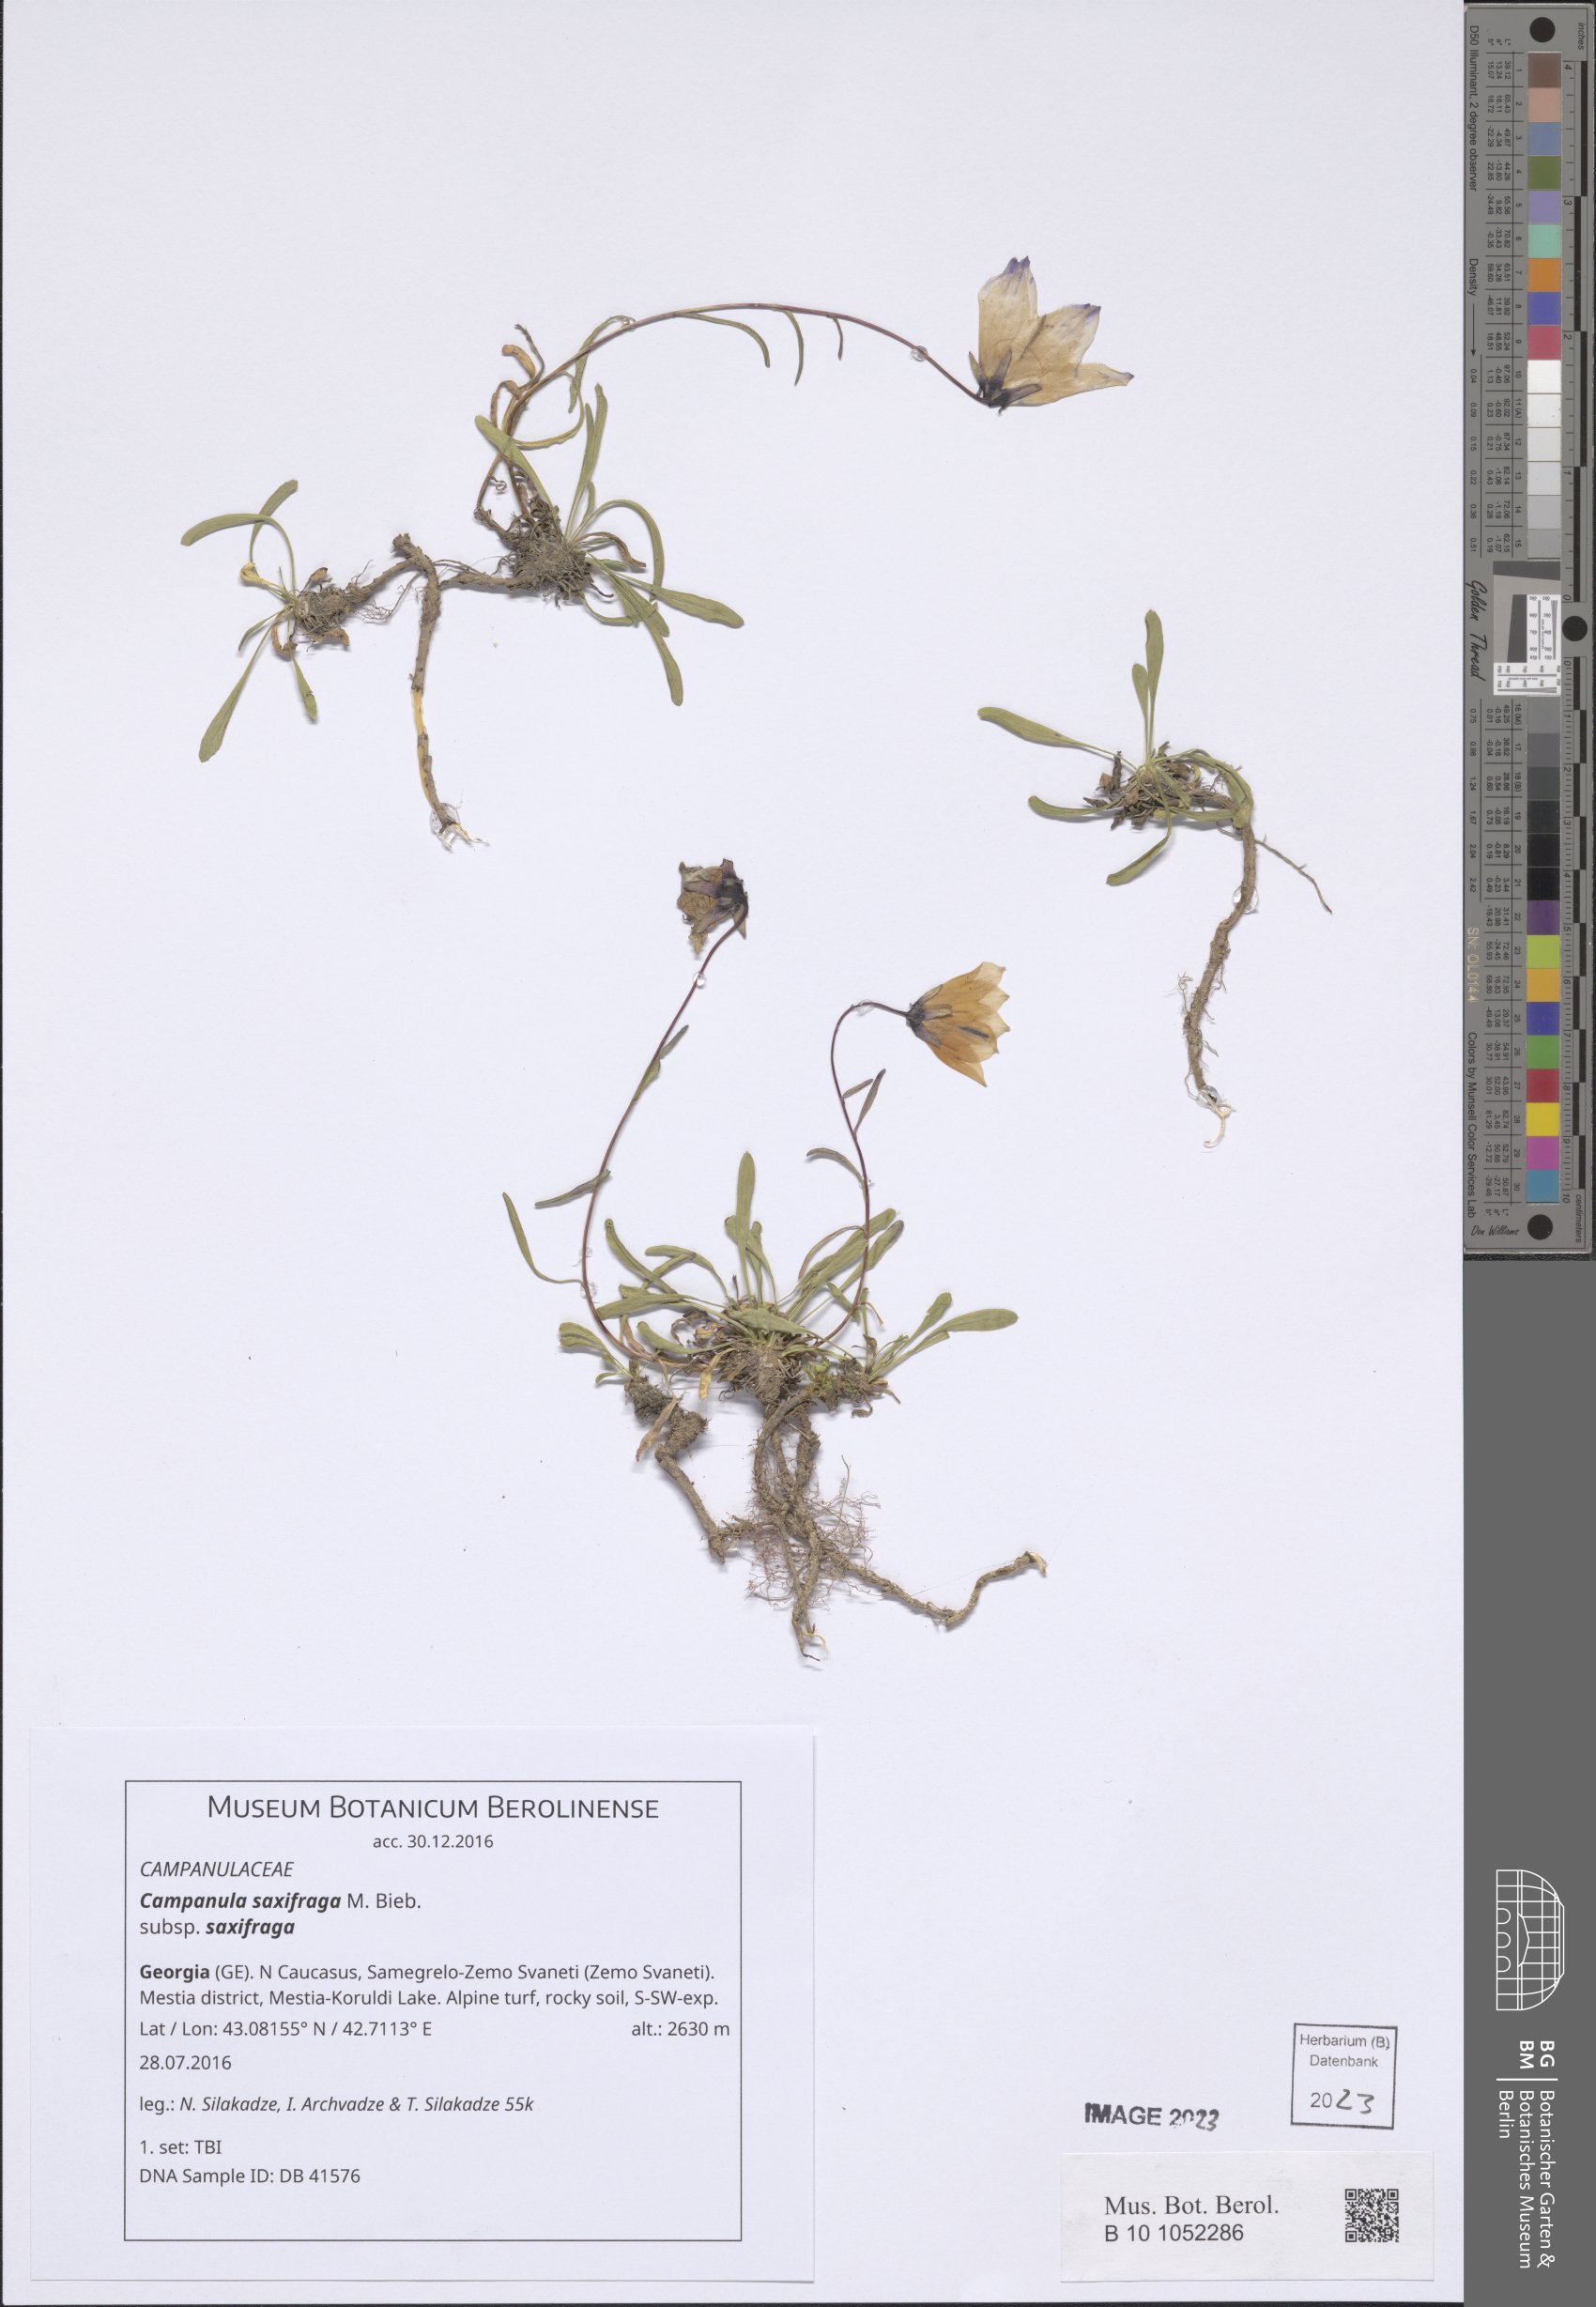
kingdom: Plantae
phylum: Tracheophyta
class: Magnoliopsida
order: Asterales
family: Campanulaceae
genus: Campanula
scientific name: Campanula saxifraga
